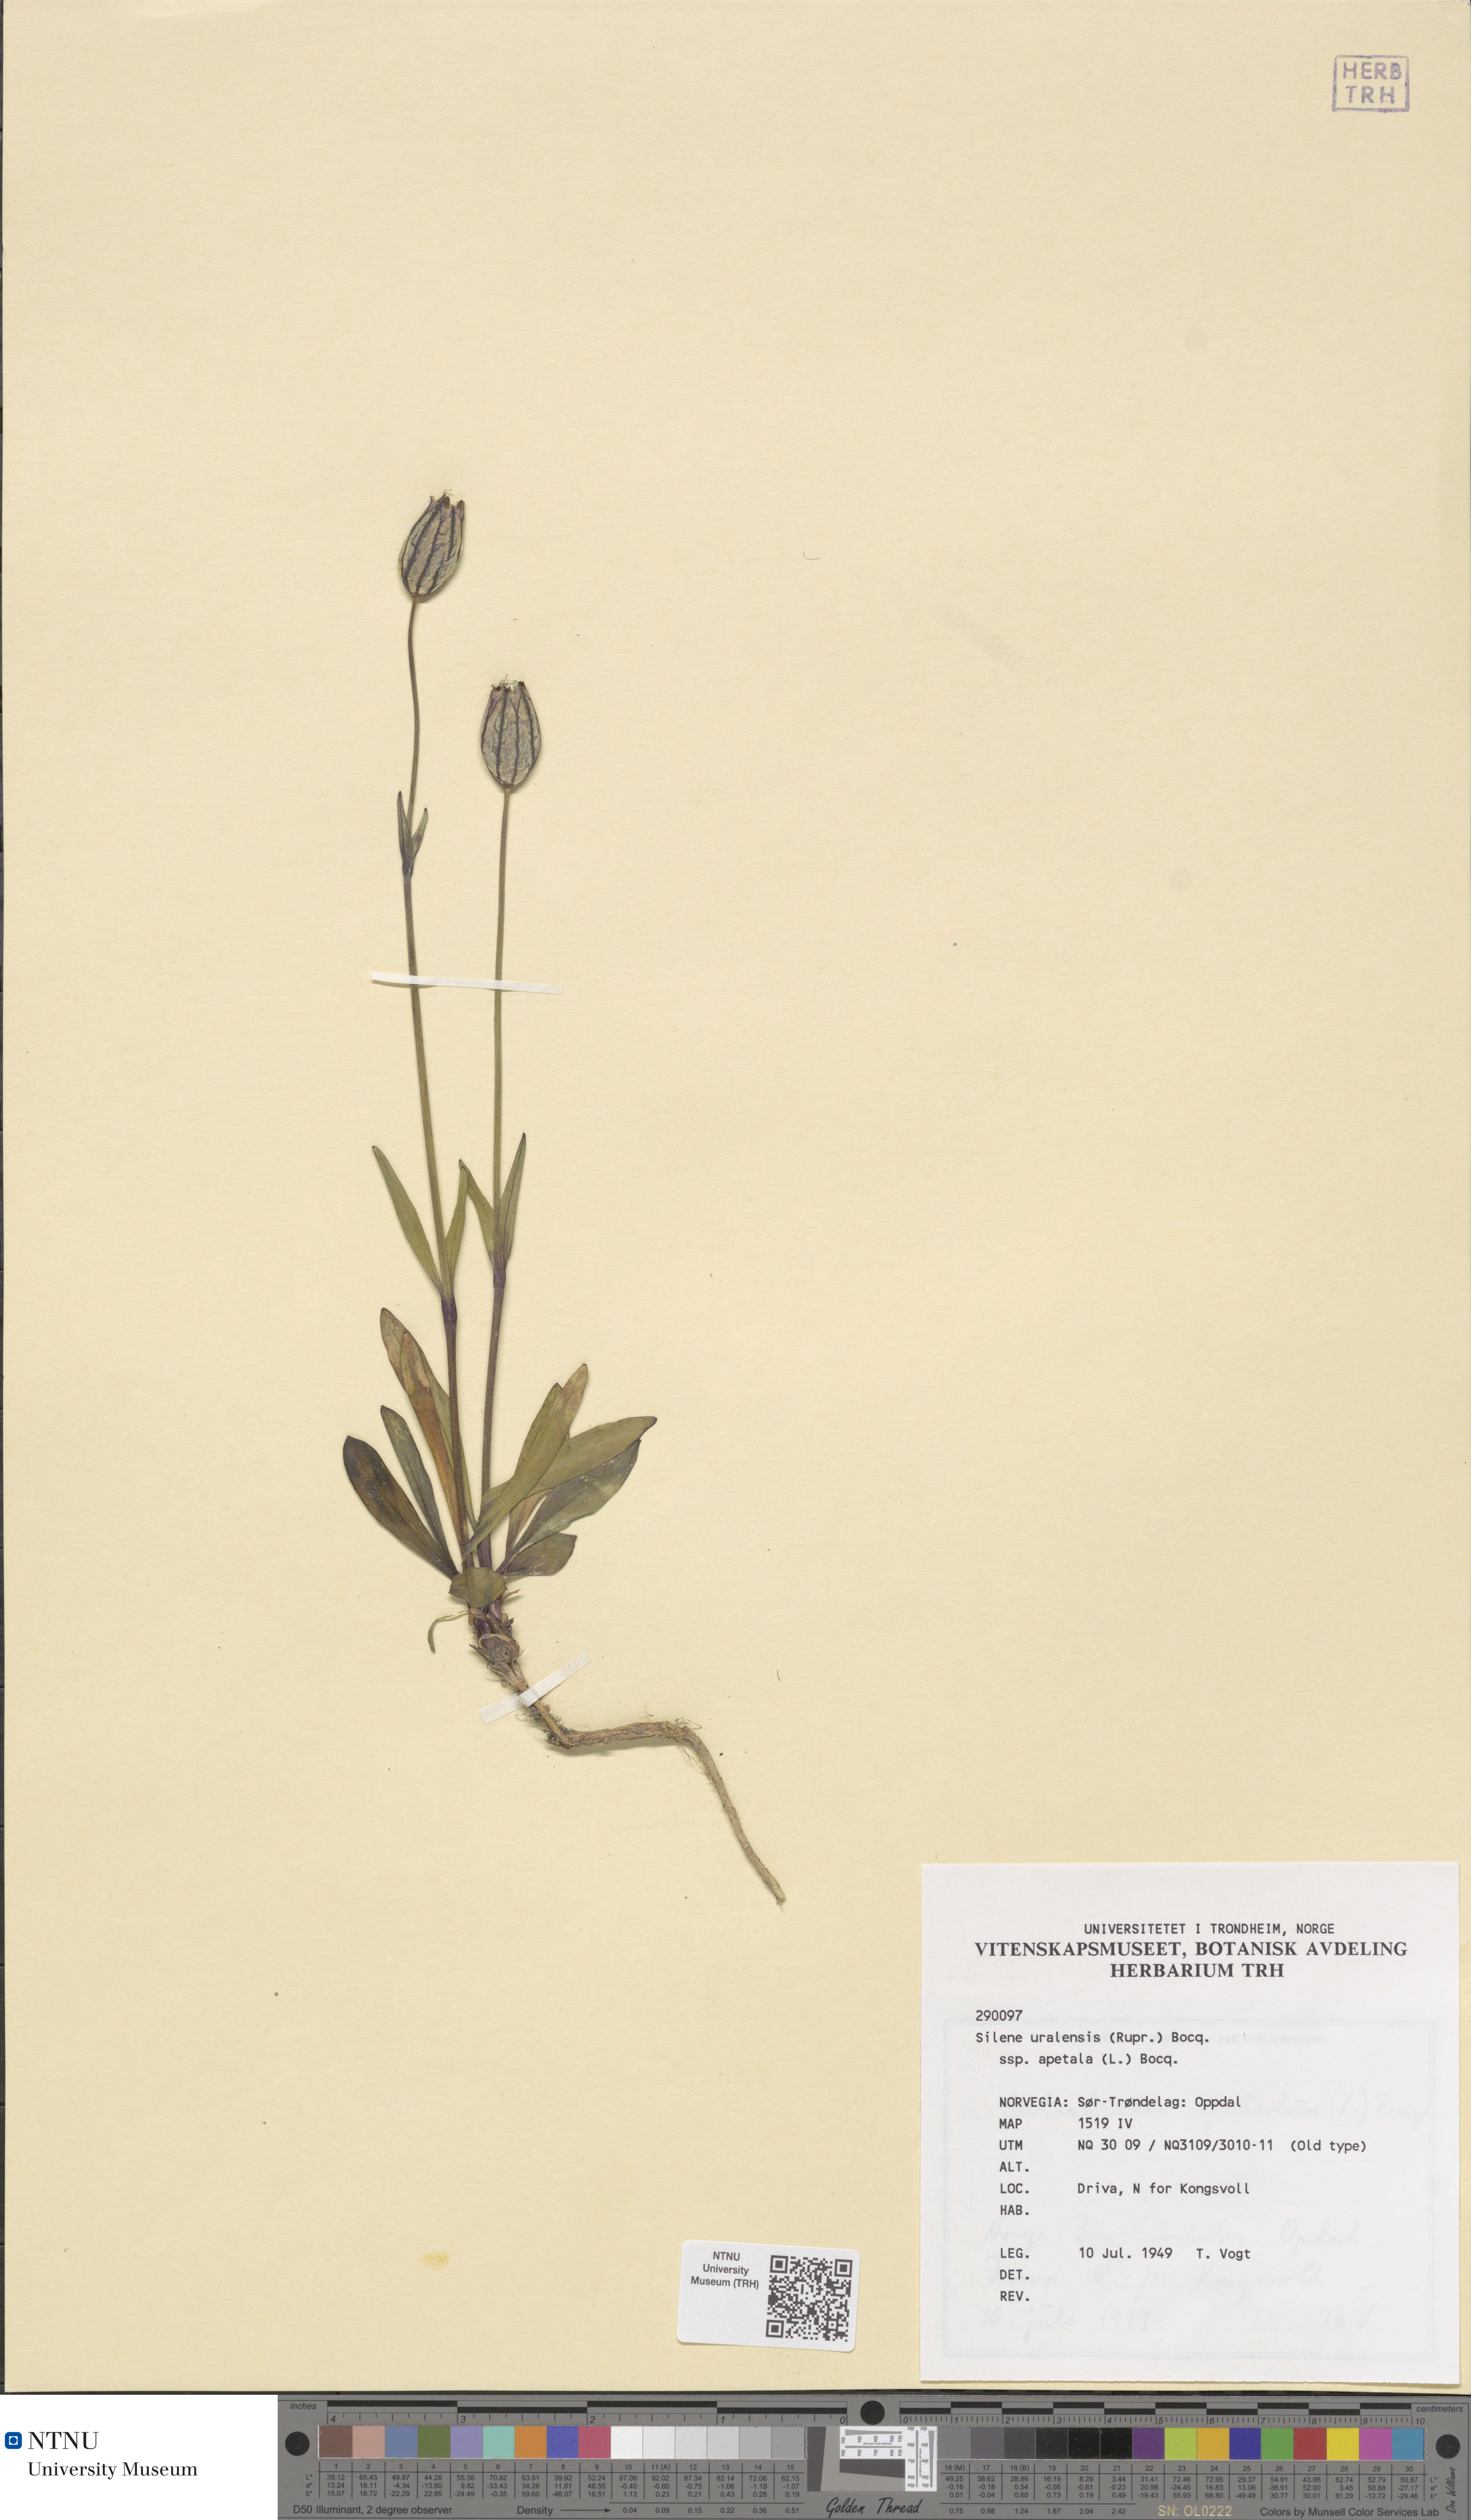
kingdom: Plantae
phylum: Tracheophyta
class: Magnoliopsida
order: Caryophyllales
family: Caryophyllaceae
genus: Silene
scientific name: Silene wahlbergella
